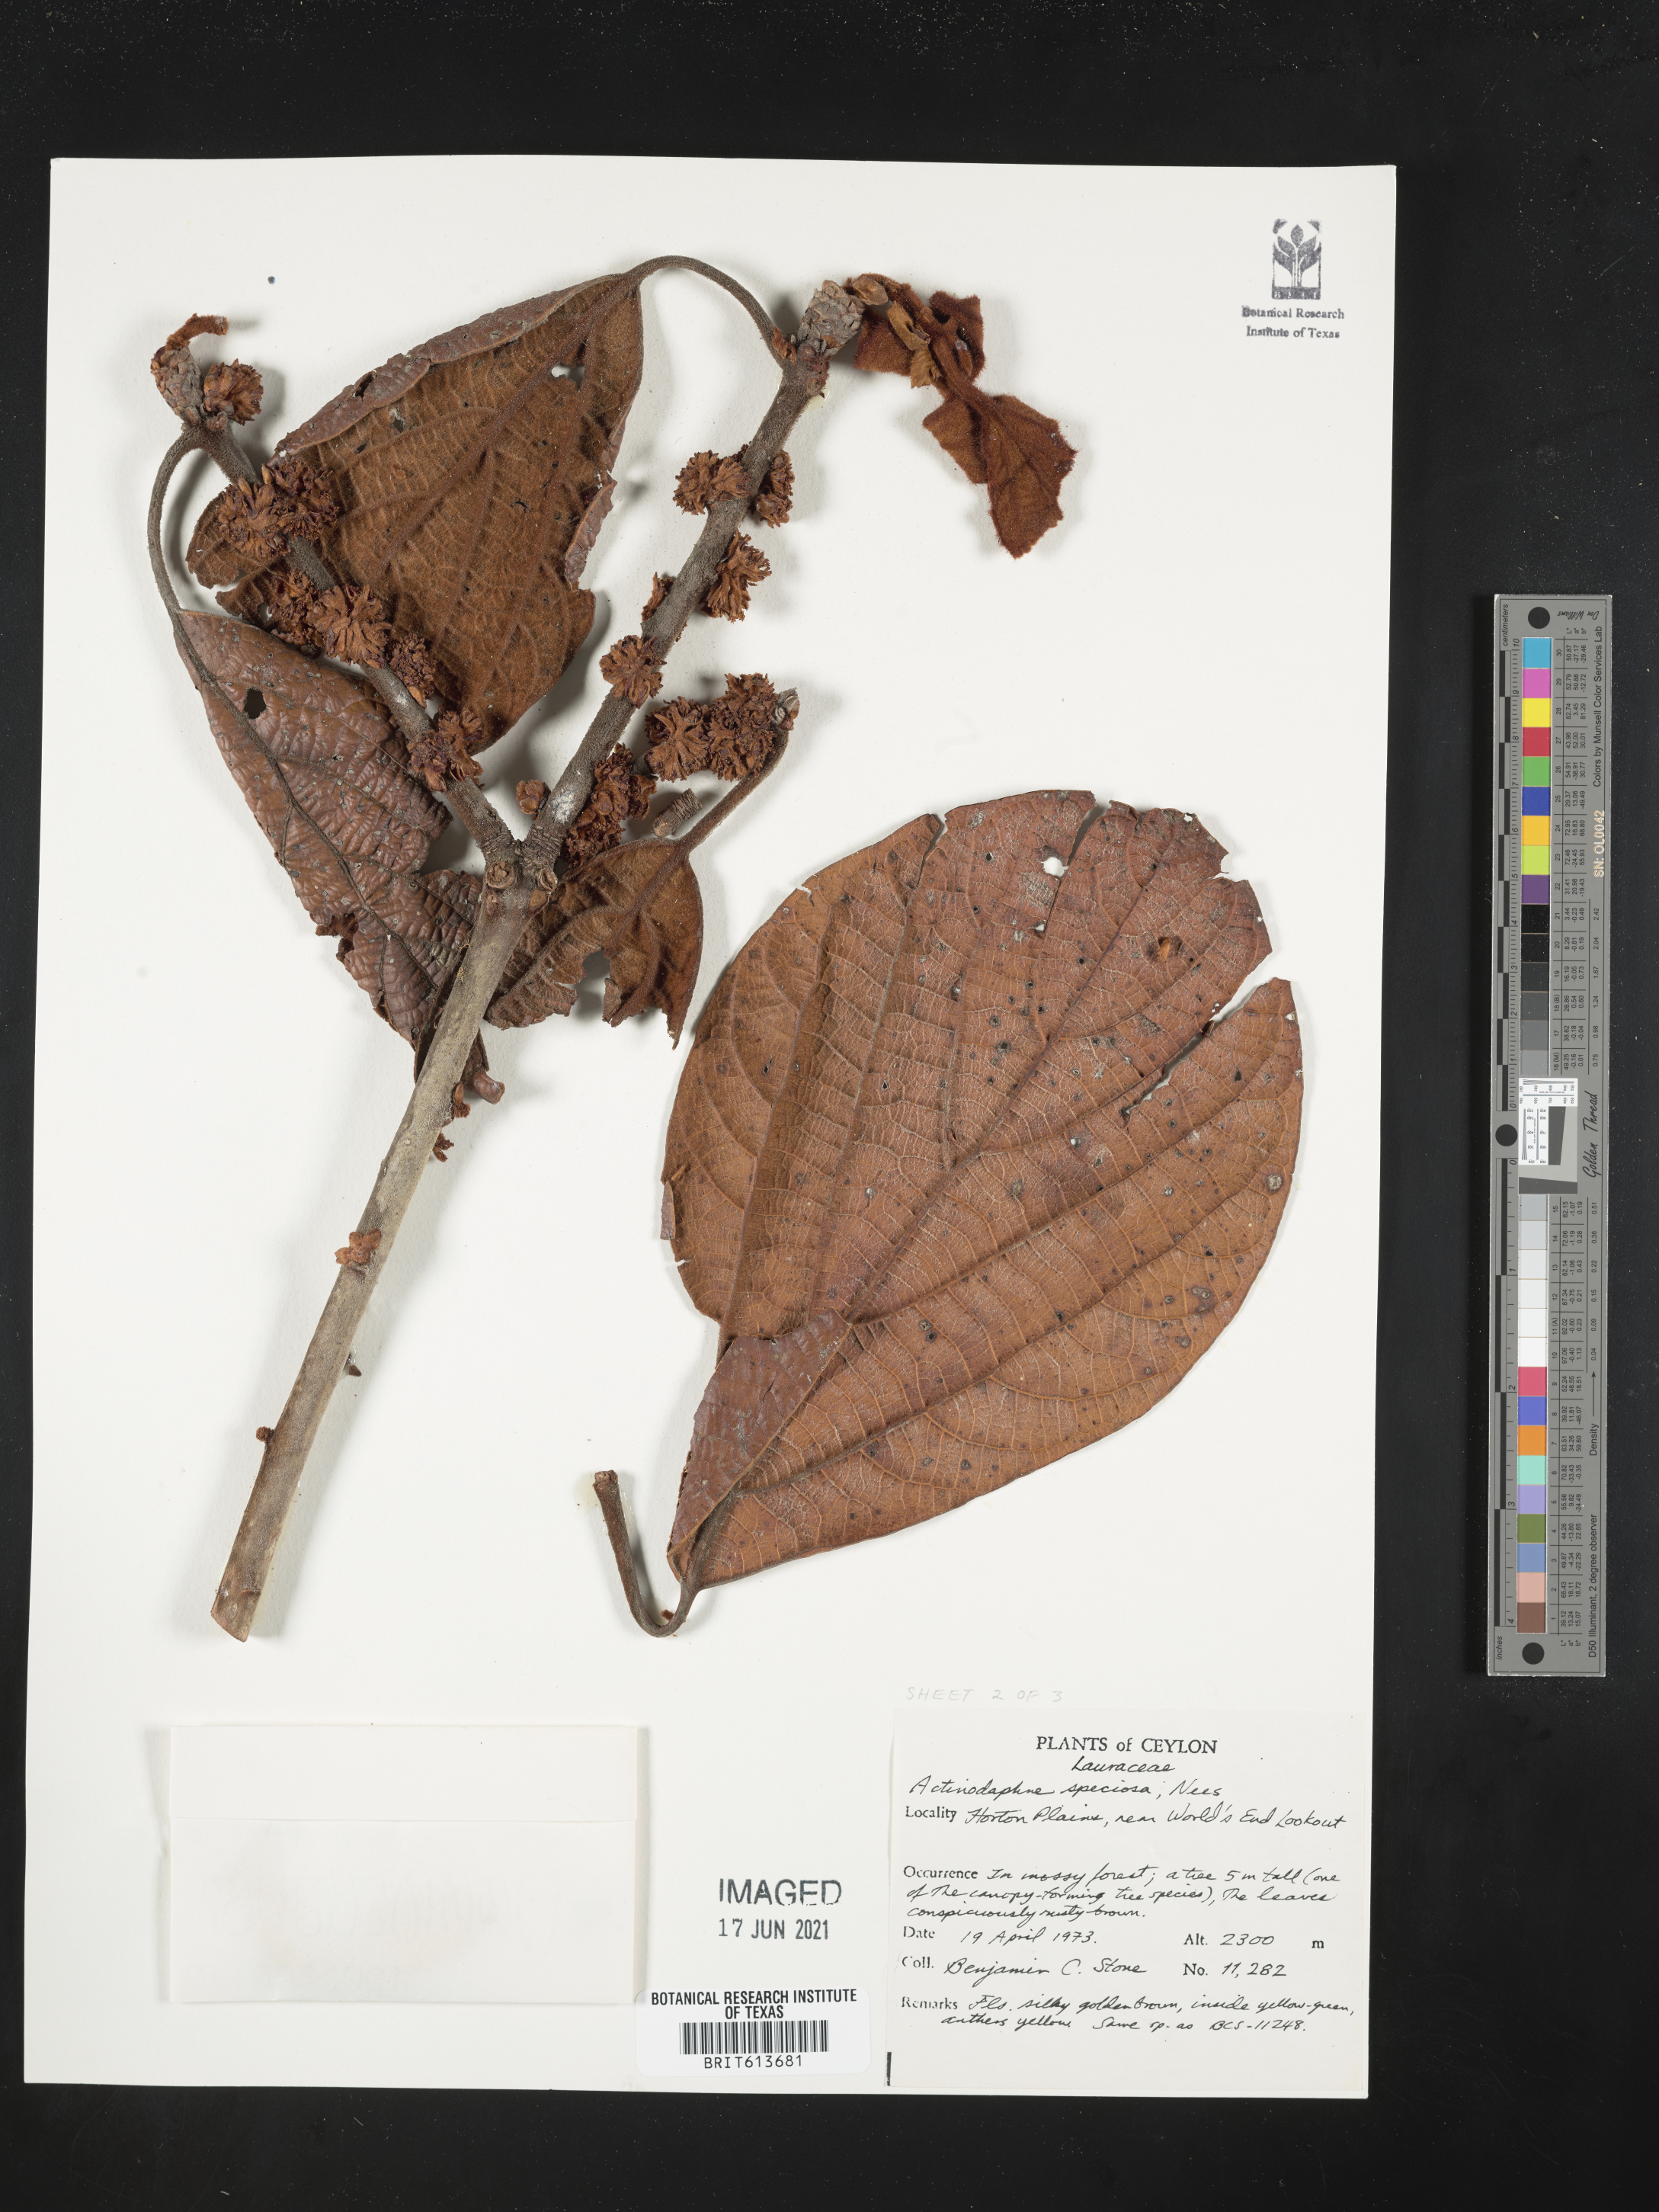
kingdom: Plantae
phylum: Tracheophyta
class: Magnoliopsida
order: Laurales
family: Lauraceae
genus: Actinodaphne
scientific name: Actinodaphne speciosa
